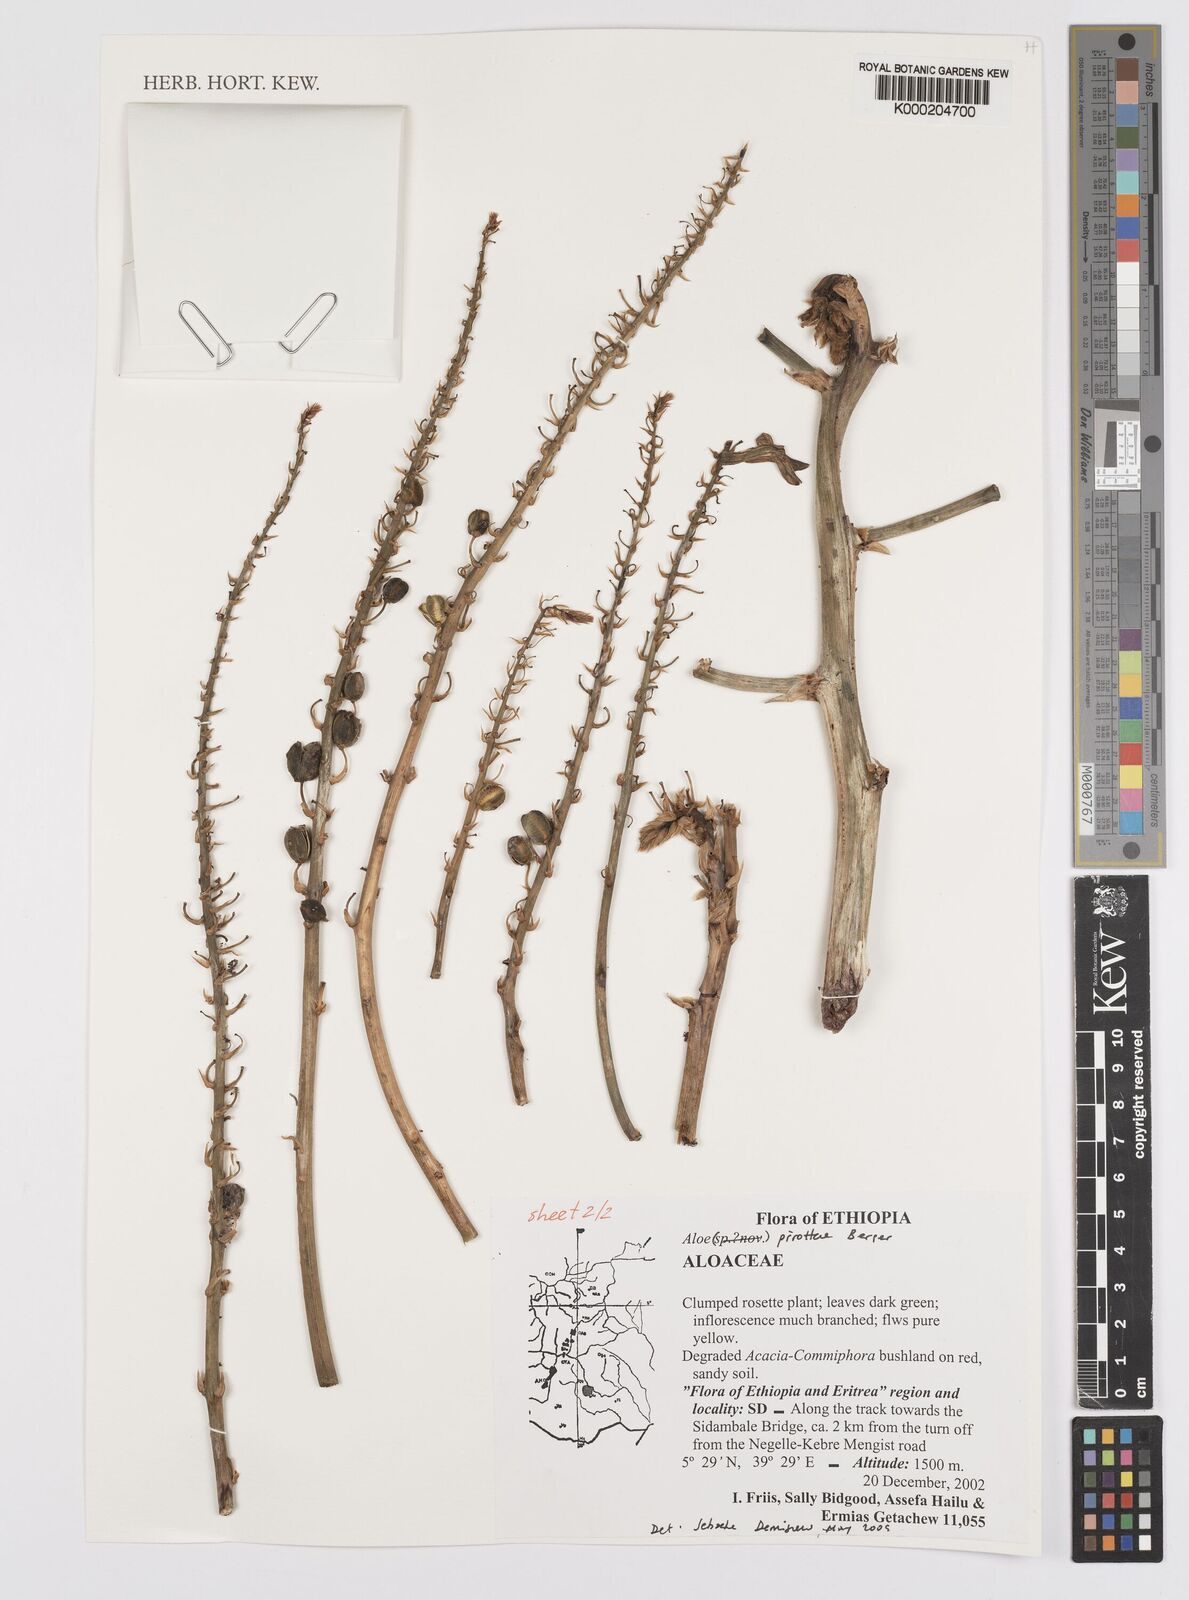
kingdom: Plantae
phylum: Tracheophyta
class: Liliopsida
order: Asparagales
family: Asphodelaceae
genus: Aloe
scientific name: Aloe pirottae
